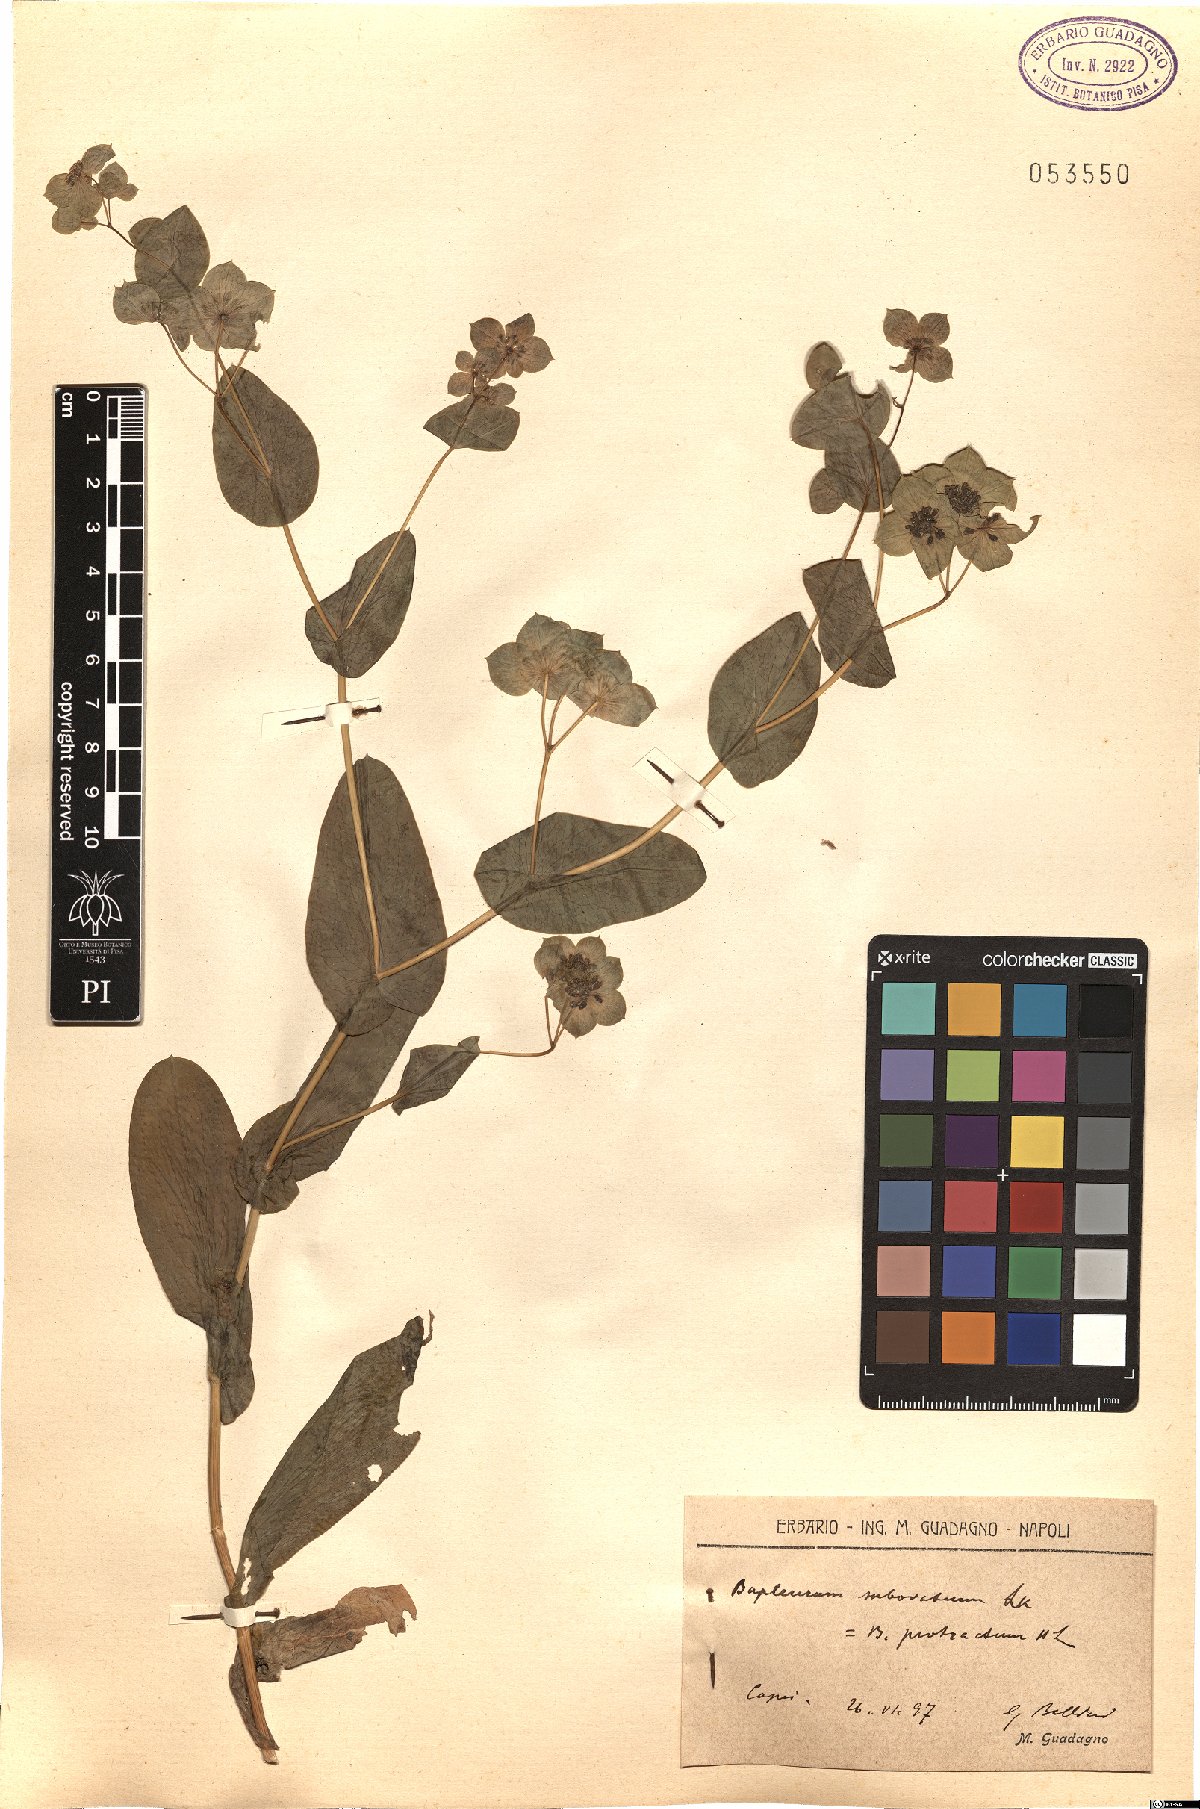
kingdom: Plantae
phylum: Tracheophyta
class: Magnoliopsida
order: Apiales
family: Apiaceae
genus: Bupleurum
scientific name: Bupleurum subovatum
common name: False thorow-wax
